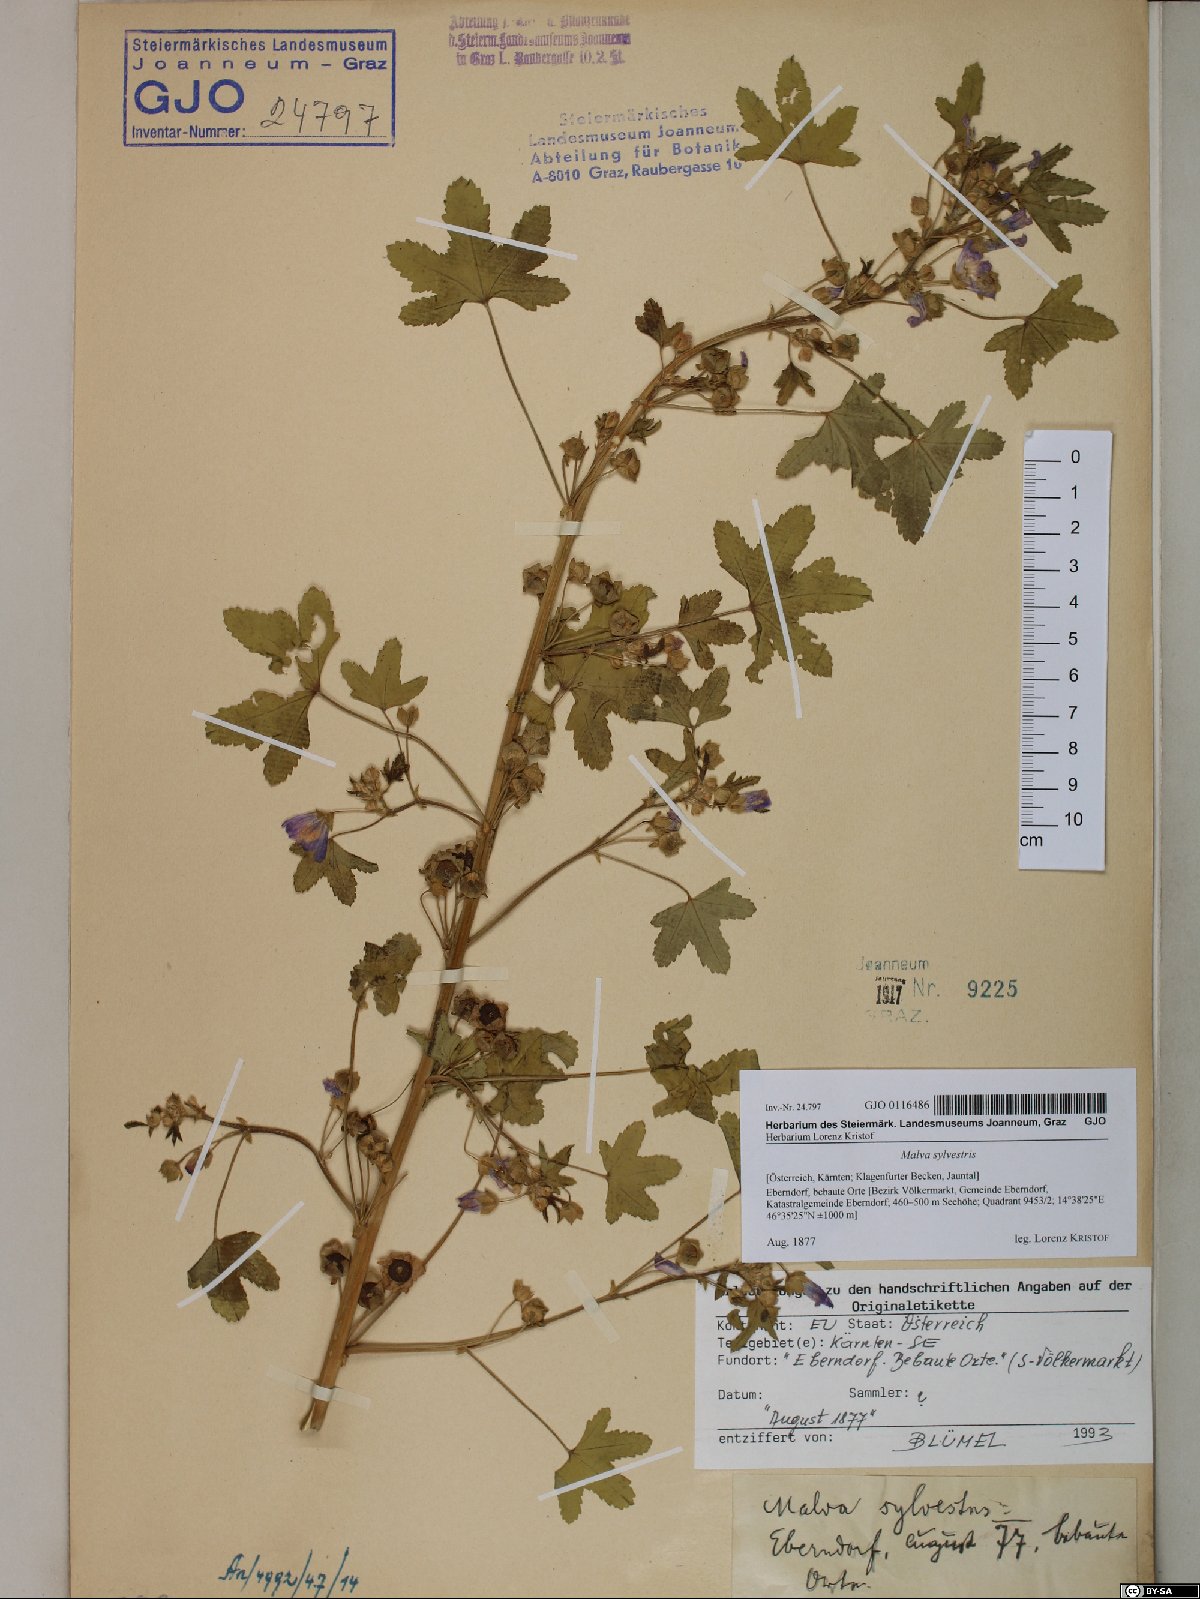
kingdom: Plantae
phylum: Tracheophyta
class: Magnoliopsida
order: Malvales
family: Malvaceae
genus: Malva
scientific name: Malva sylvestris
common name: Common mallow
